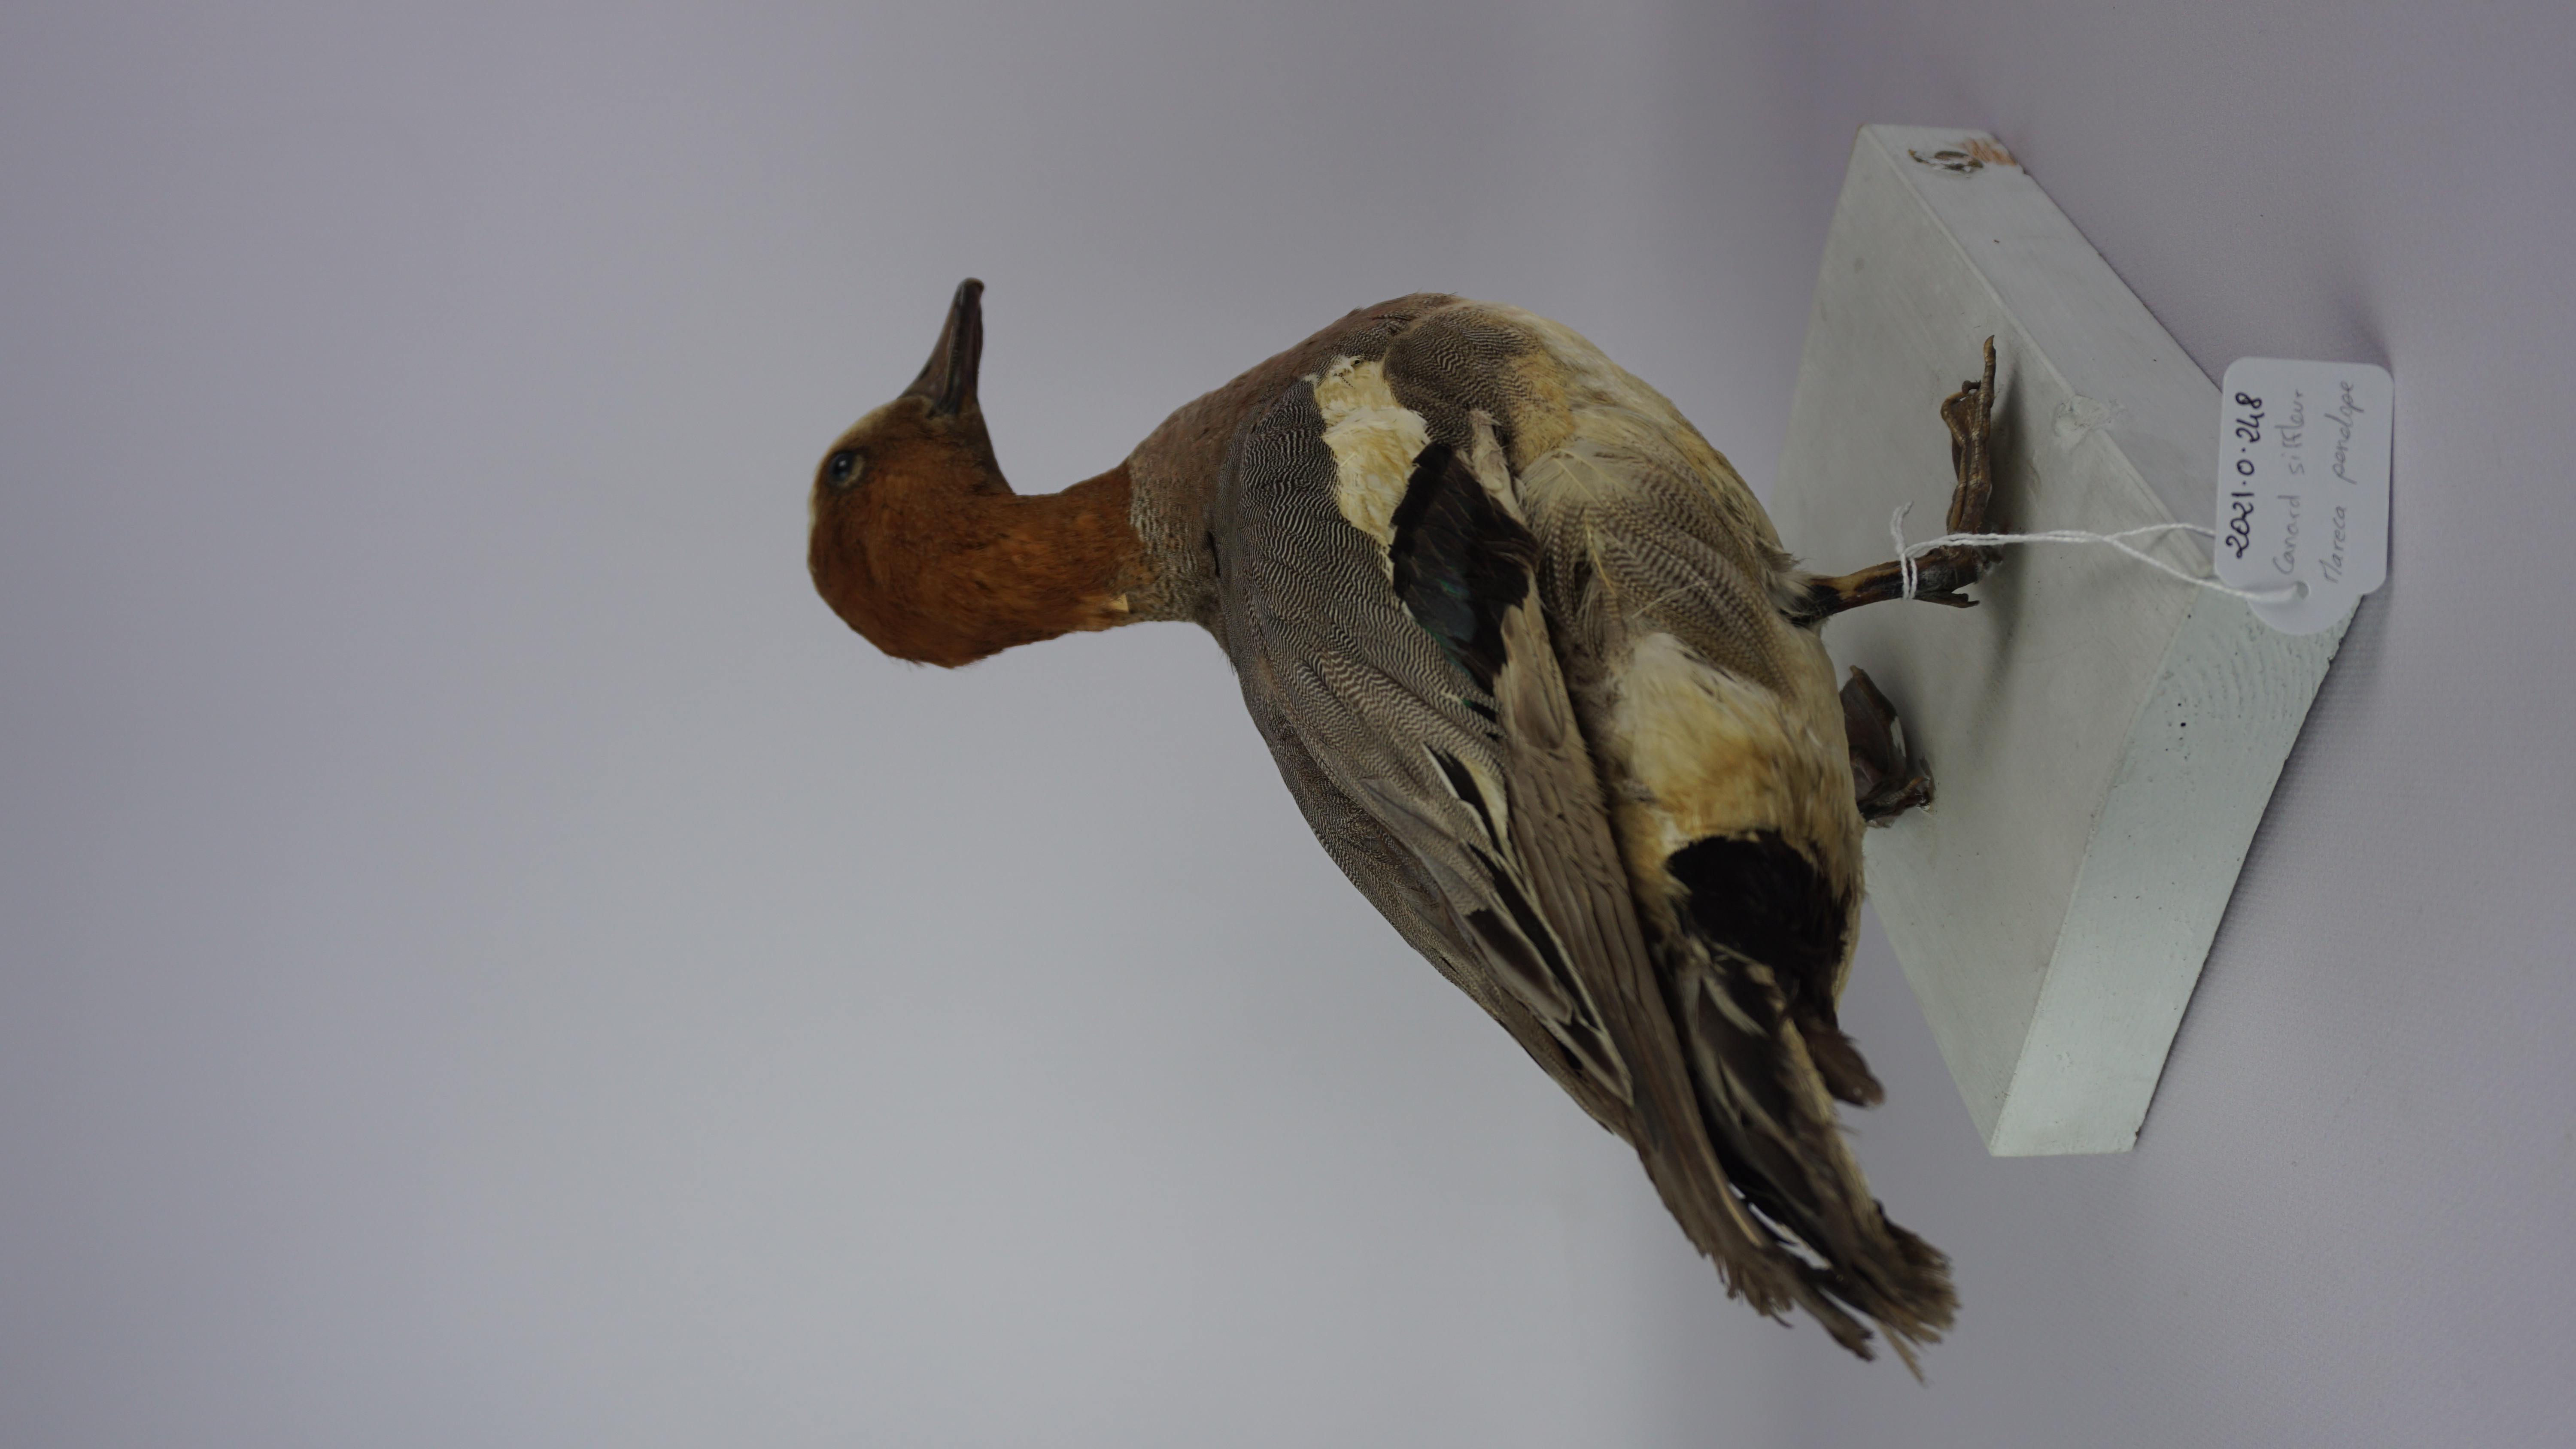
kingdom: Animalia
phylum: Chordata
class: Aves
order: Anseriformes
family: Anatidae
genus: Mareca
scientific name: Mareca penelope
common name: Eurasian wigeon
